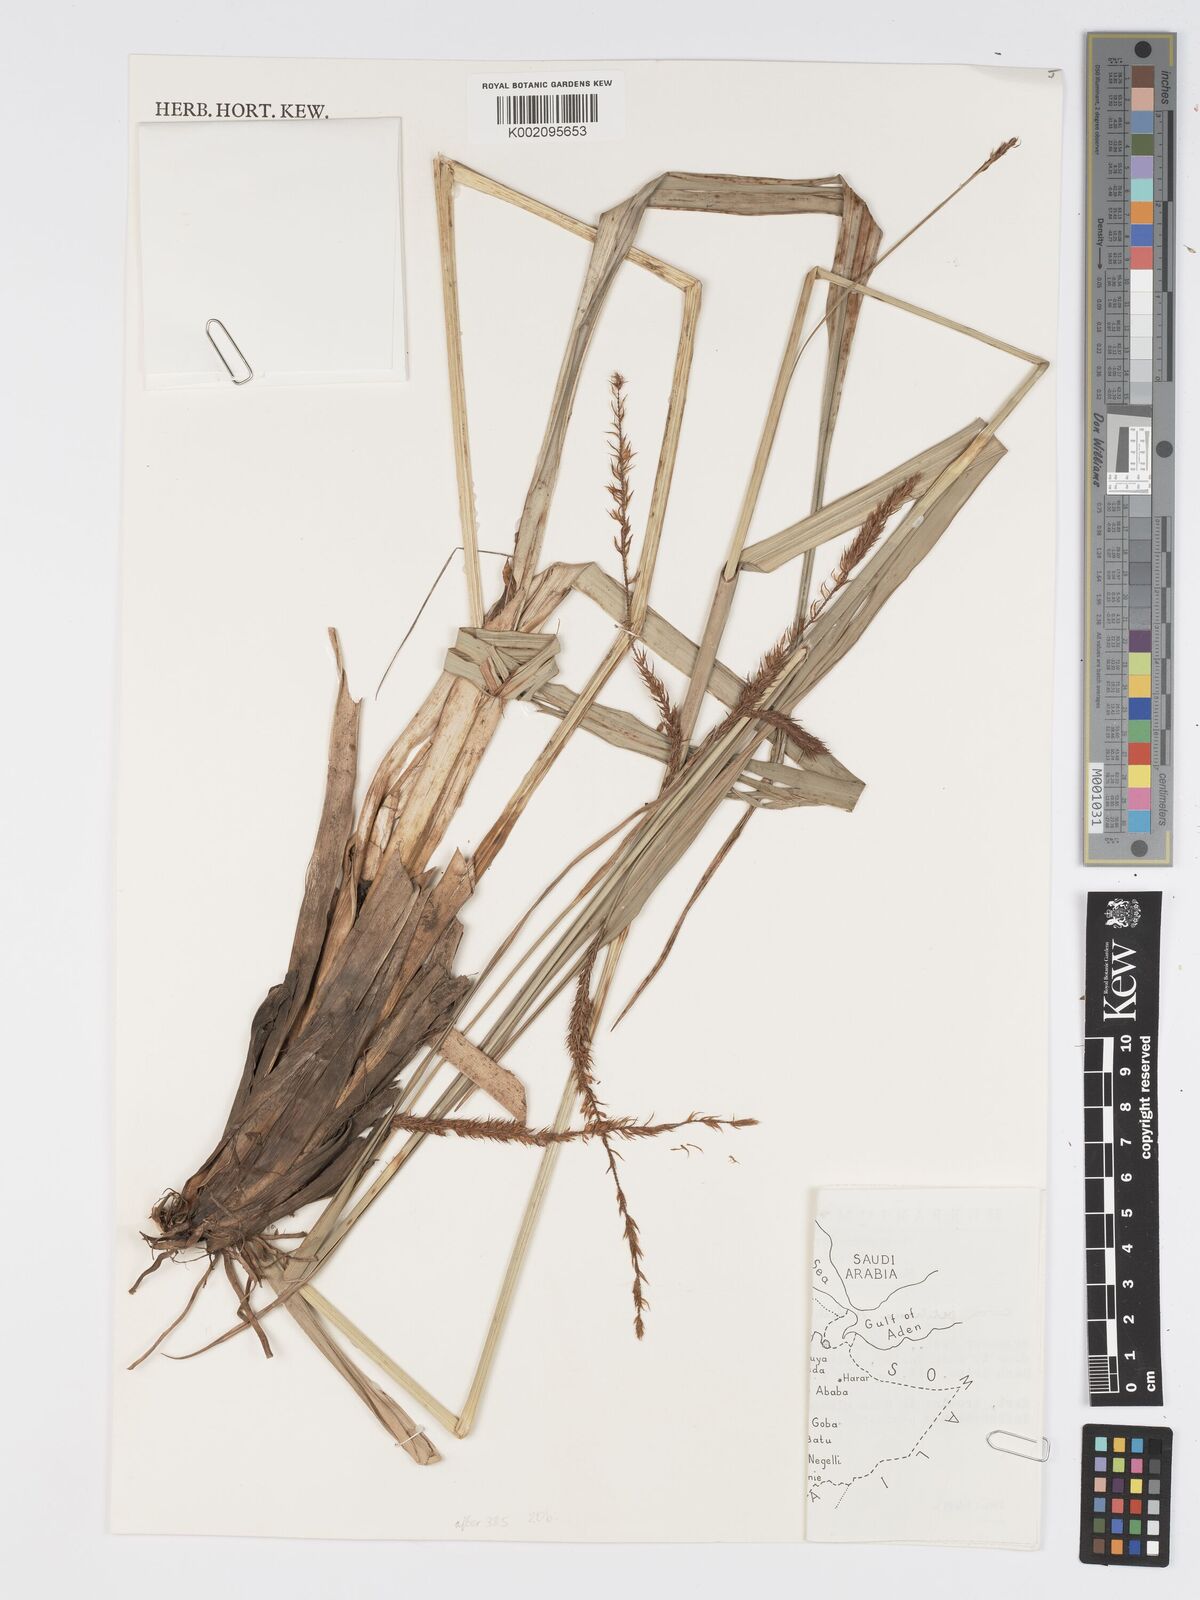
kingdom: Plantae
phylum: Tracheophyta
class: Liliopsida
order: Poales
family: Cyperaceae
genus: Carex
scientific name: Carex bequaertii
